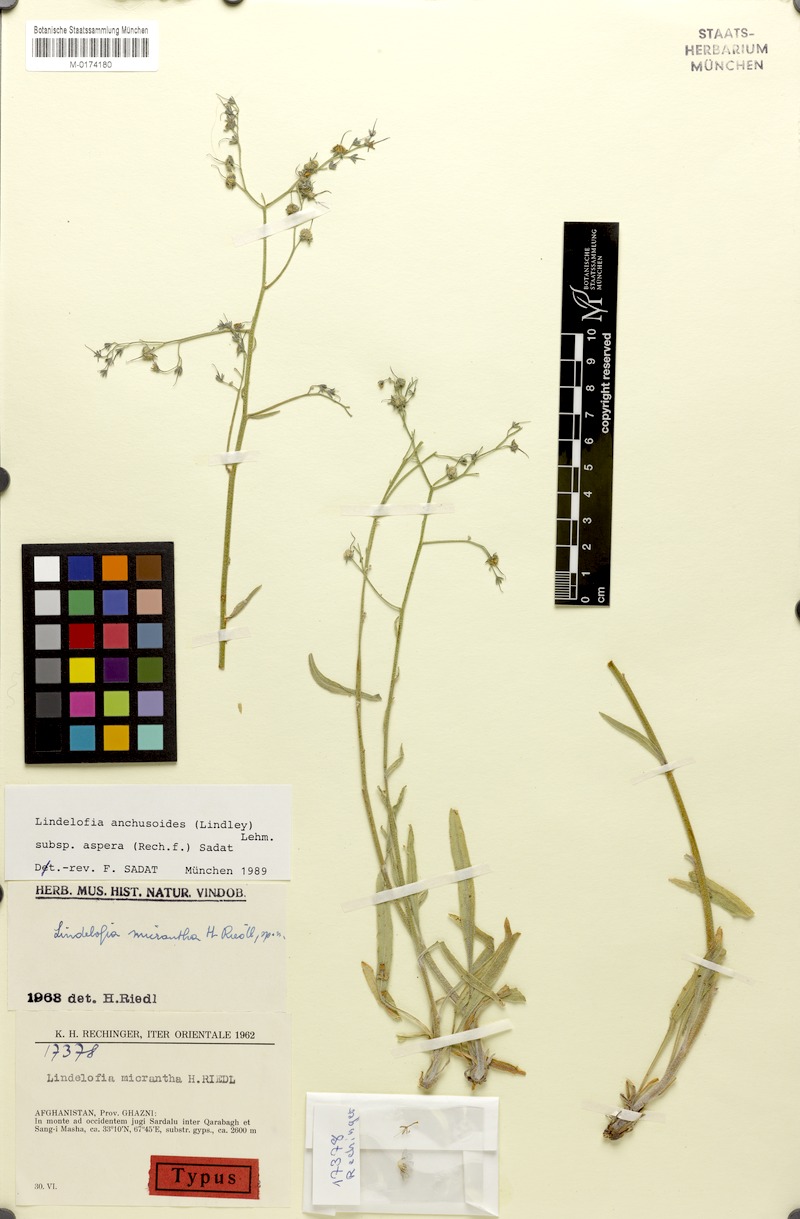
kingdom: Plantae
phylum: Tracheophyta
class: Magnoliopsida
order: Boraginales
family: Boraginaceae
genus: Lindelofia
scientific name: Lindelofia anchusoides
